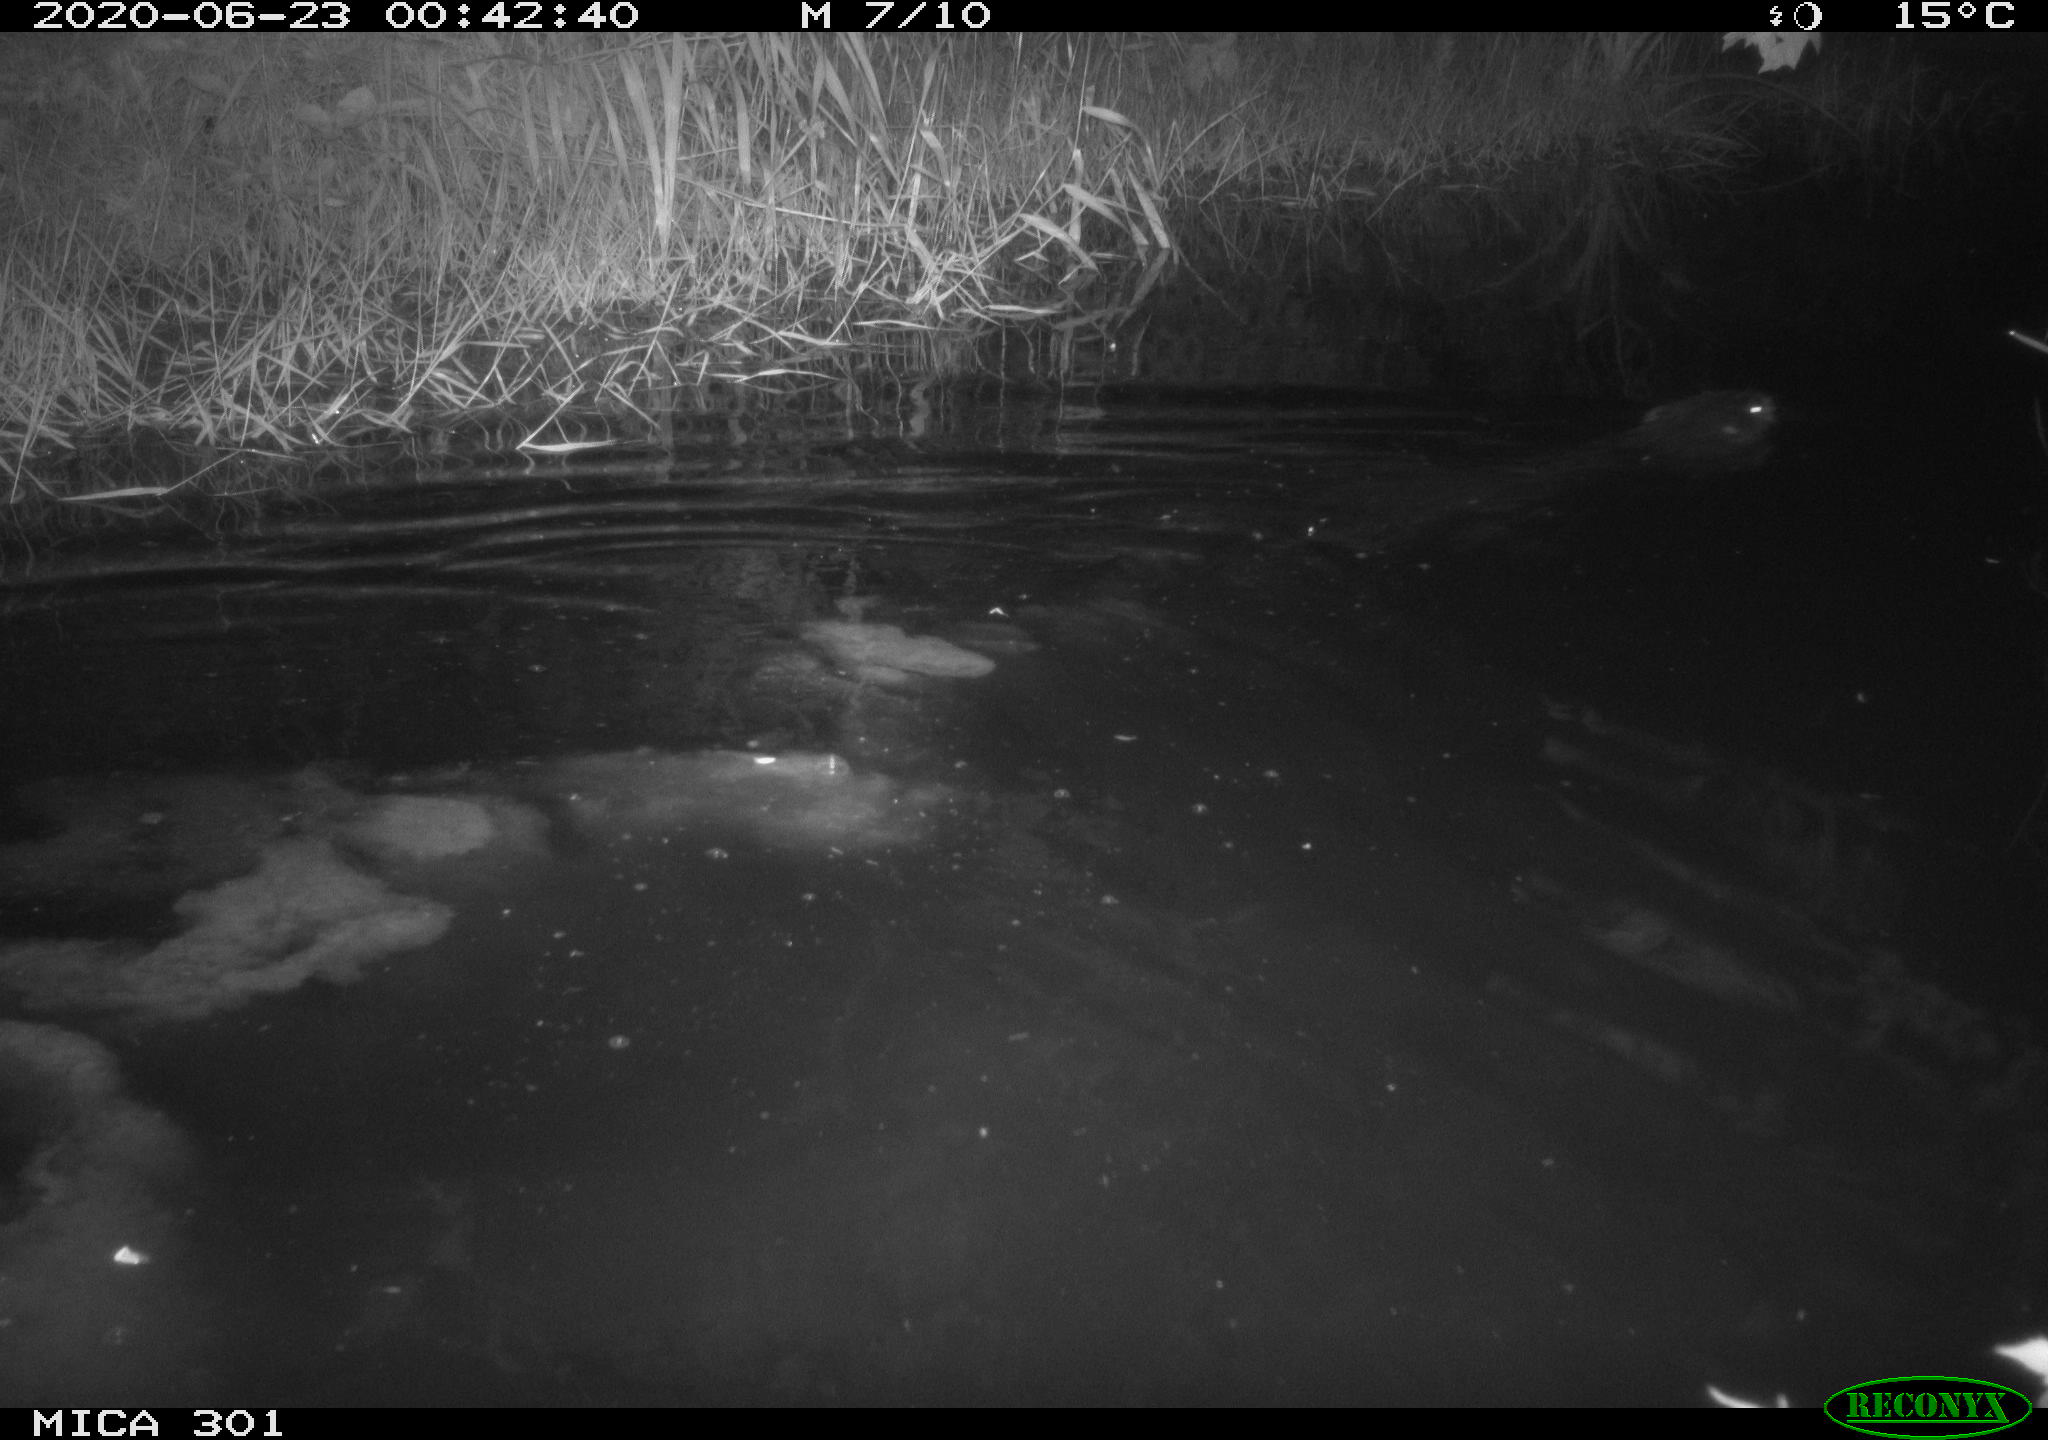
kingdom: Animalia
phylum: Chordata
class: Mammalia
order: Rodentia
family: Castoridae
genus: Castor
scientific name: Castor fiber
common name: Eurasian beaver
